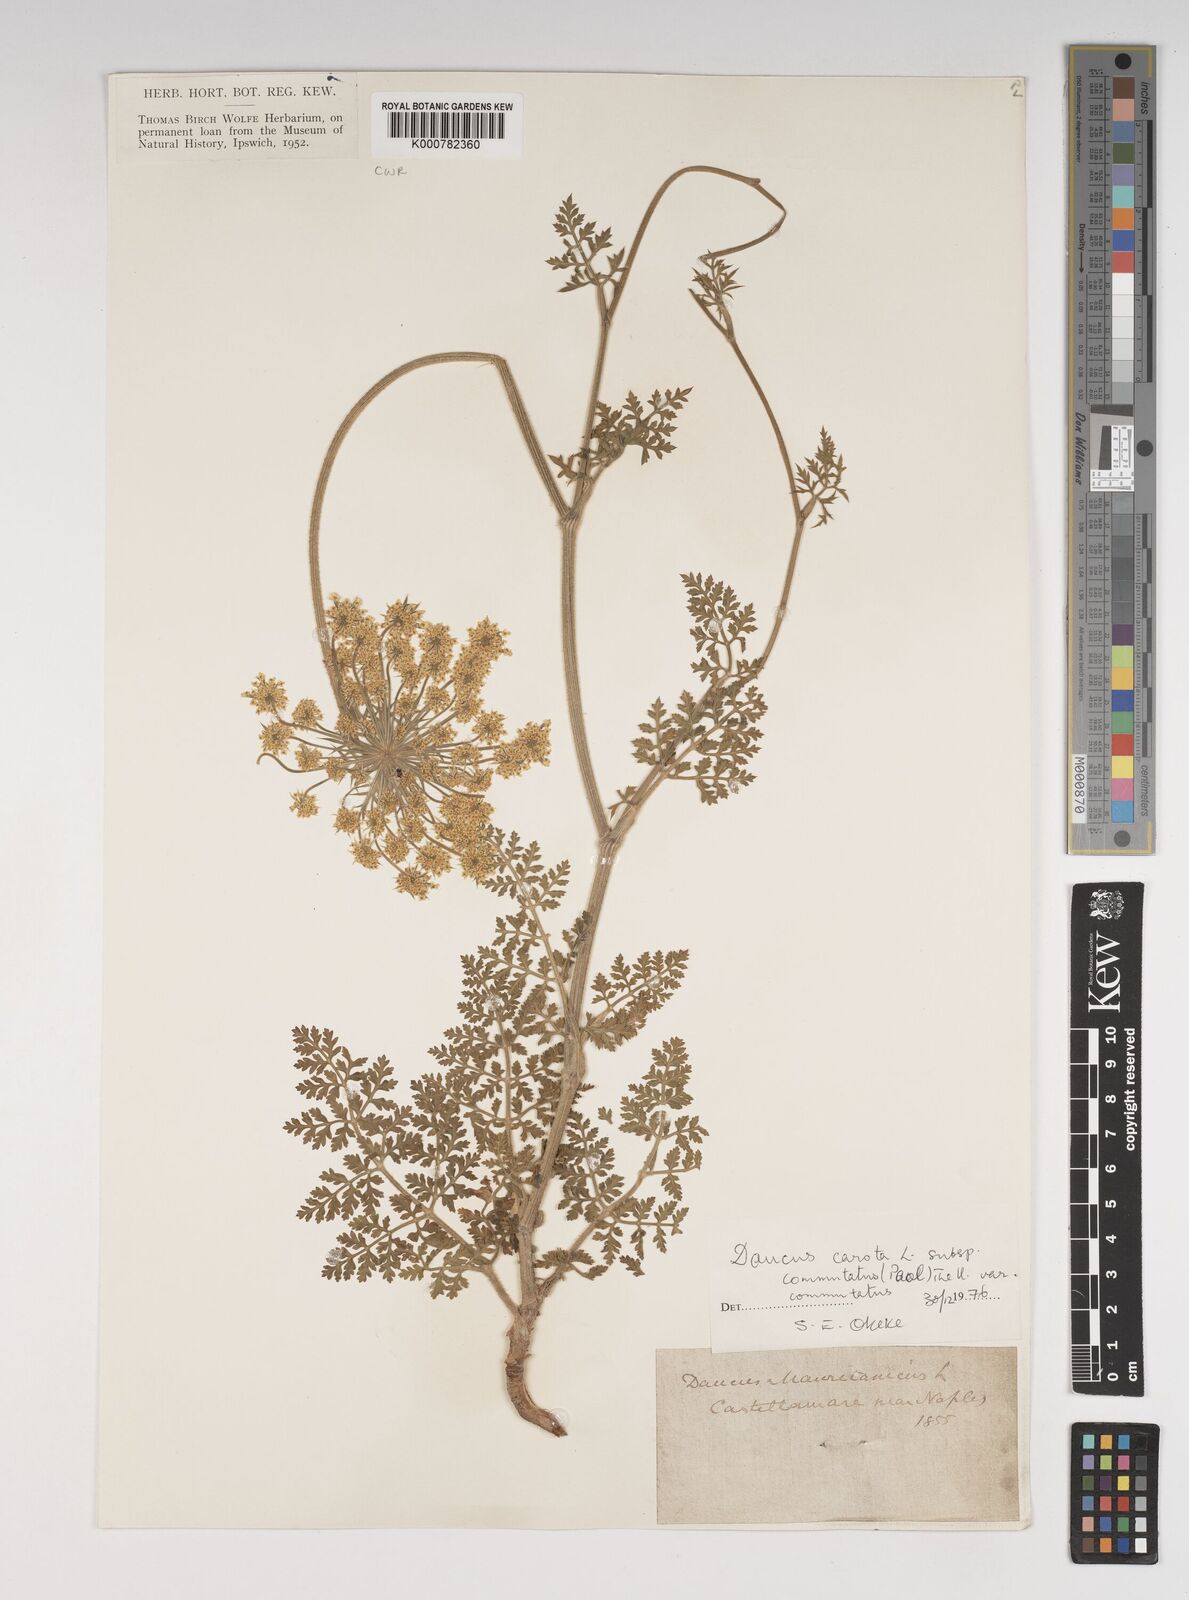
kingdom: Plantae
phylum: Tracheophyta
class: Magnoliopsida
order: Apiales
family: Apiaceae
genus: Daucus
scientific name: Daucus carota
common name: Wild carrot
